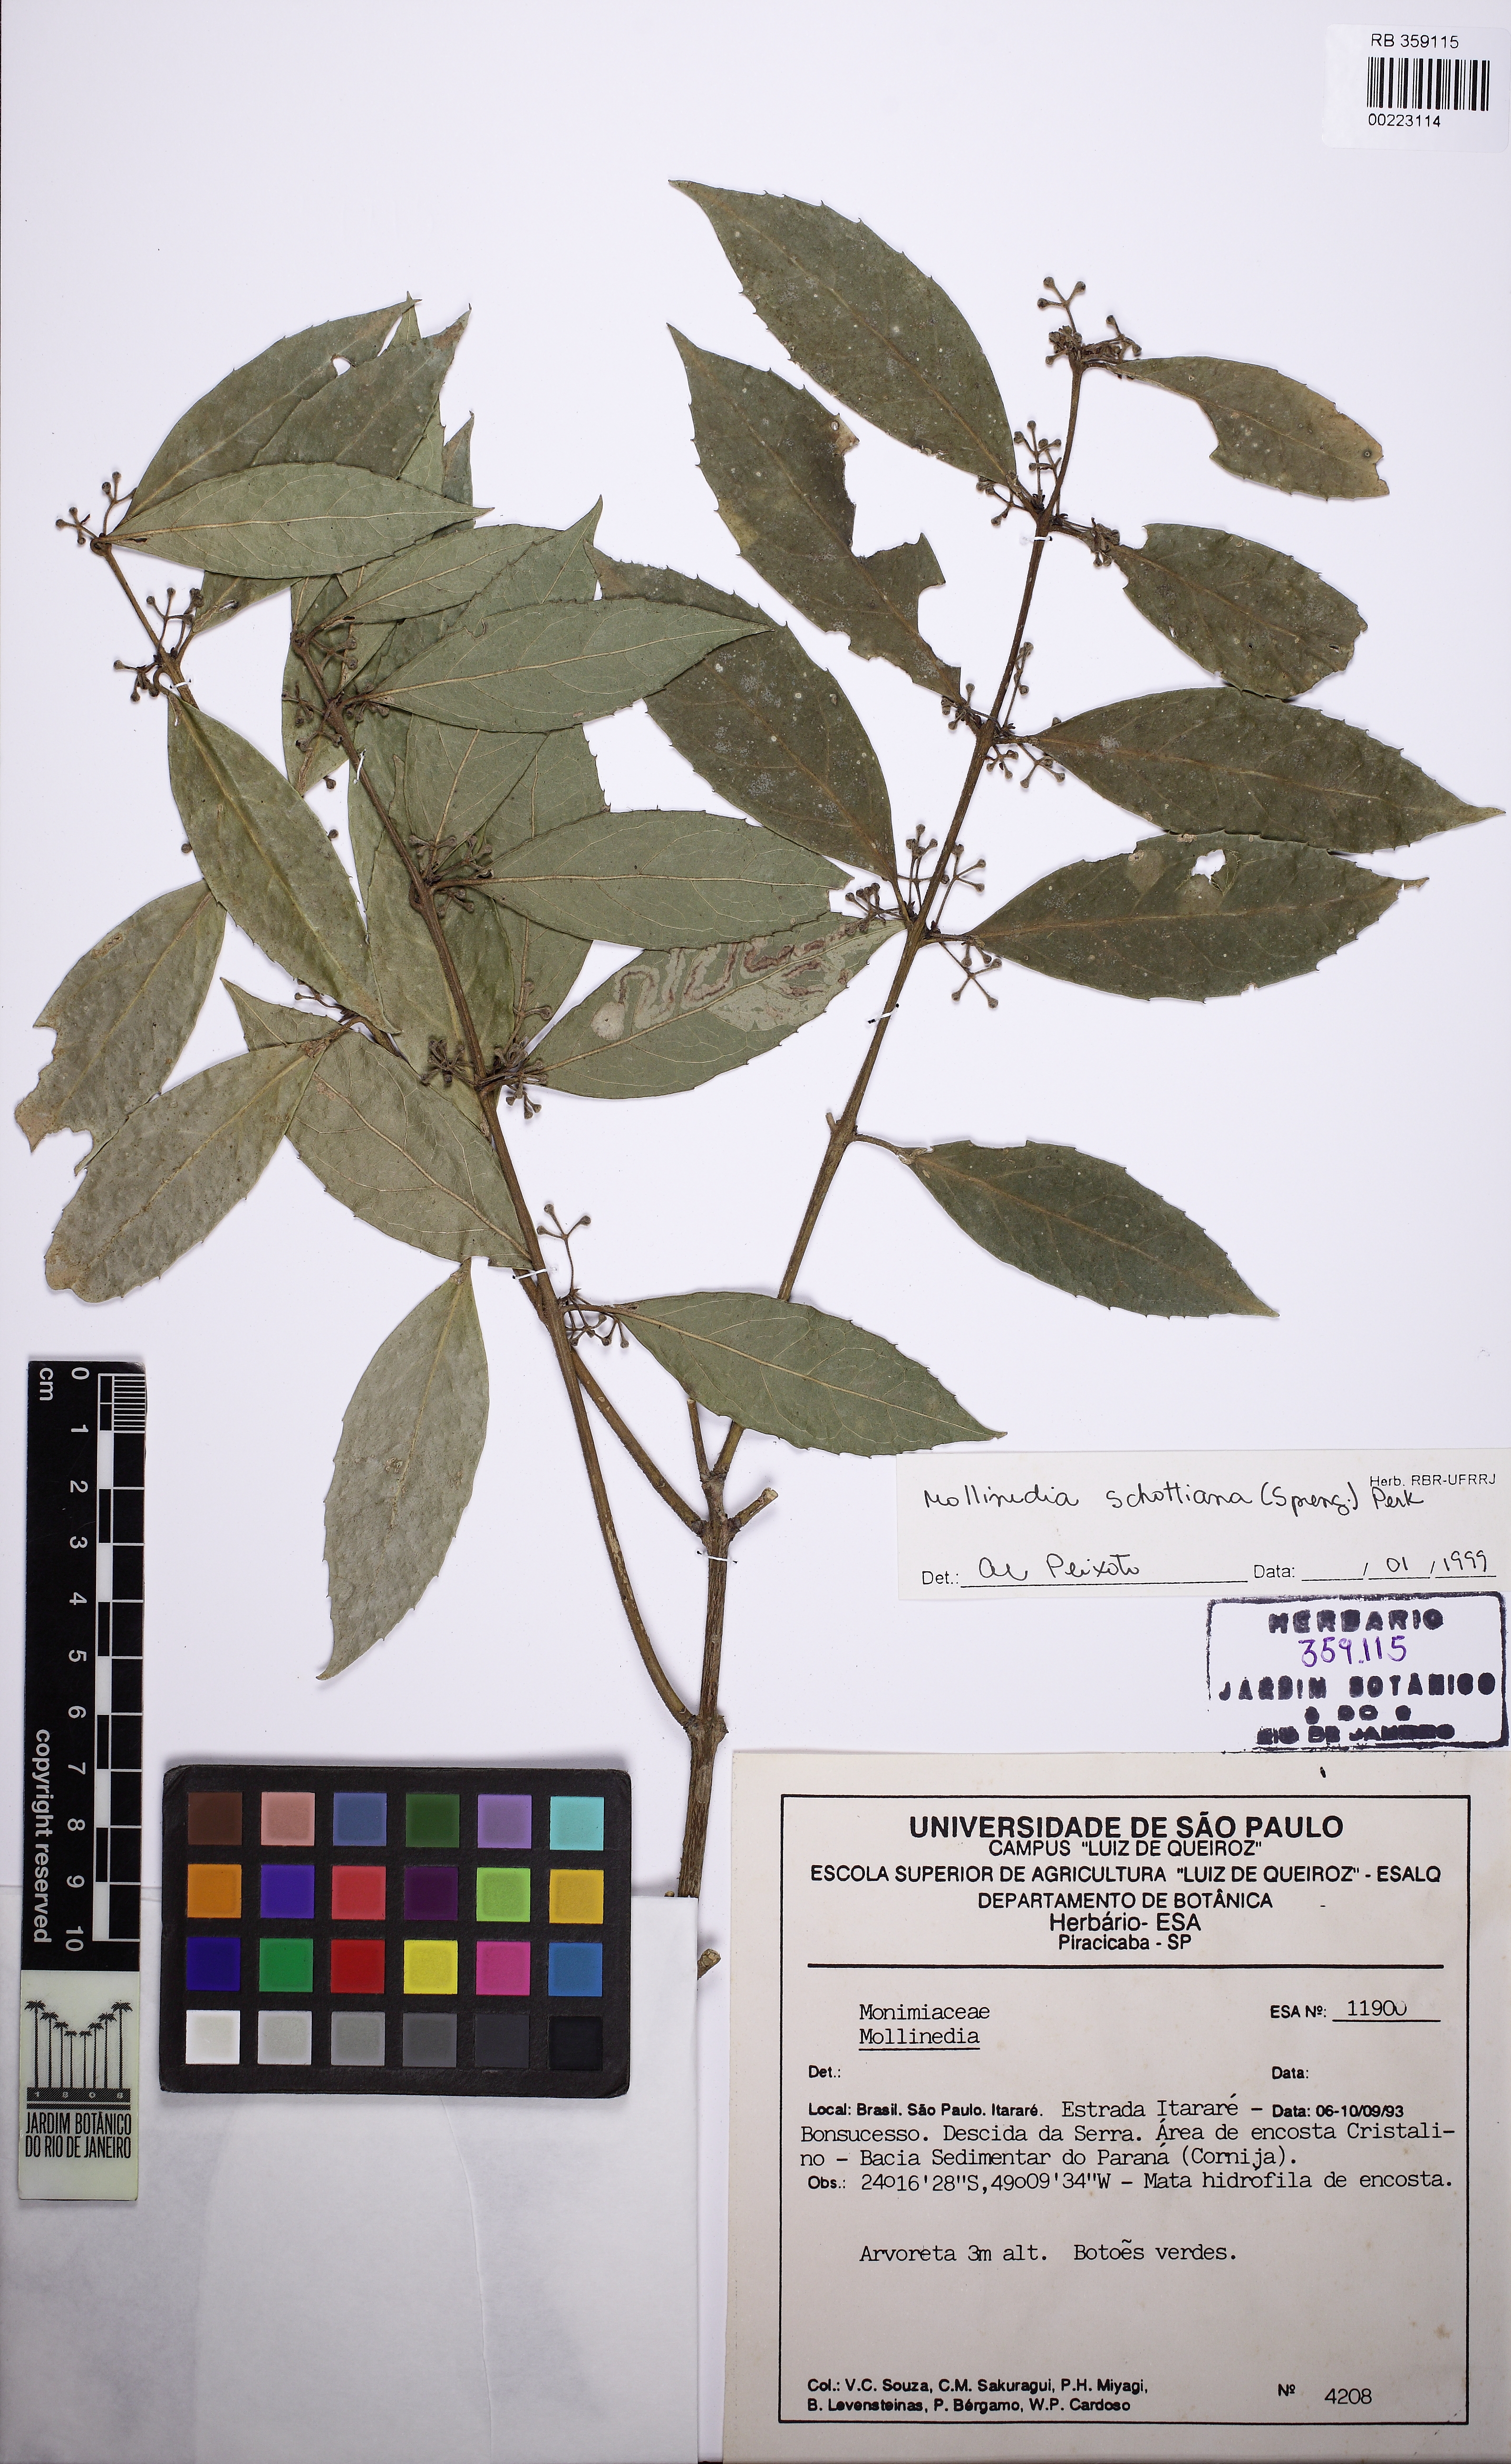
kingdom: Plantae
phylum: Tracheophyta
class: Magnoliopsida
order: Laurales
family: Monimiaceae
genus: Mollinedia
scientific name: Mollinedia umbellata
